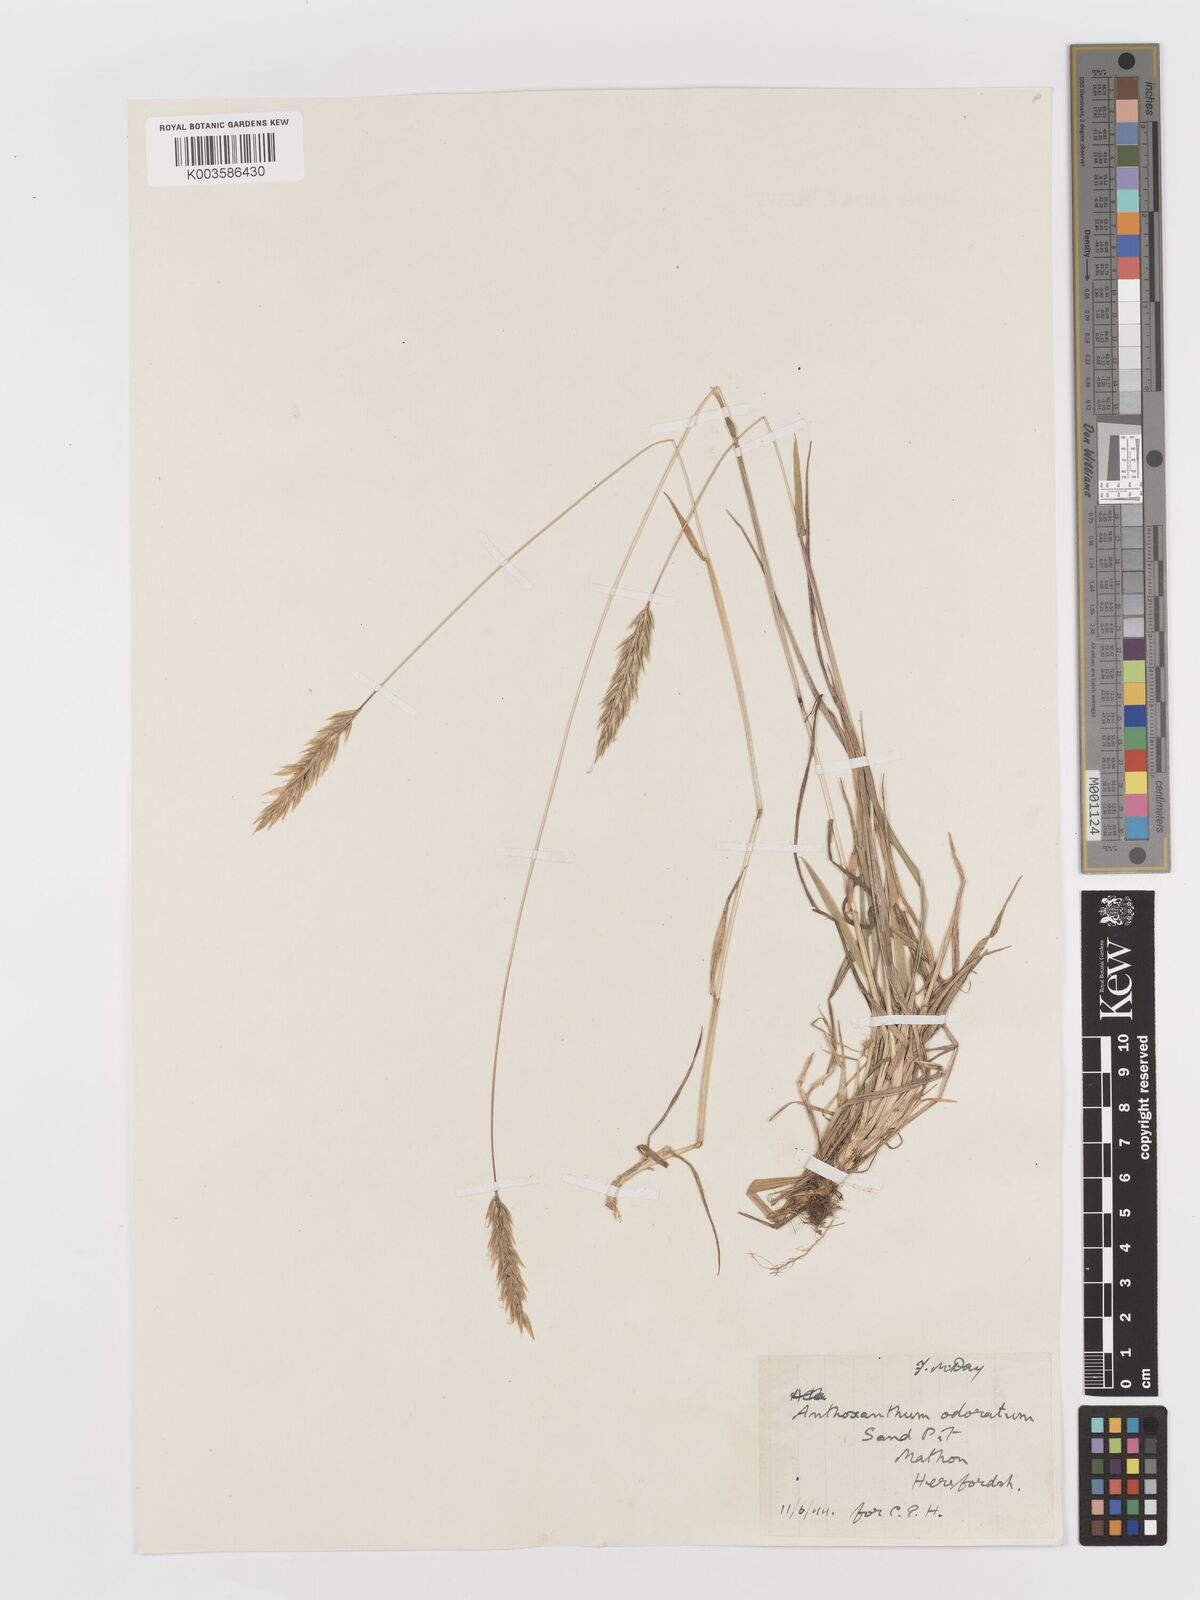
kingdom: Plantae
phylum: Tracheophyta
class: Liliopsida
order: Poales
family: Poaceae
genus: Anthoxanthum
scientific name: Anthoxanthum odoratum
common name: Sweet vernalgrass
